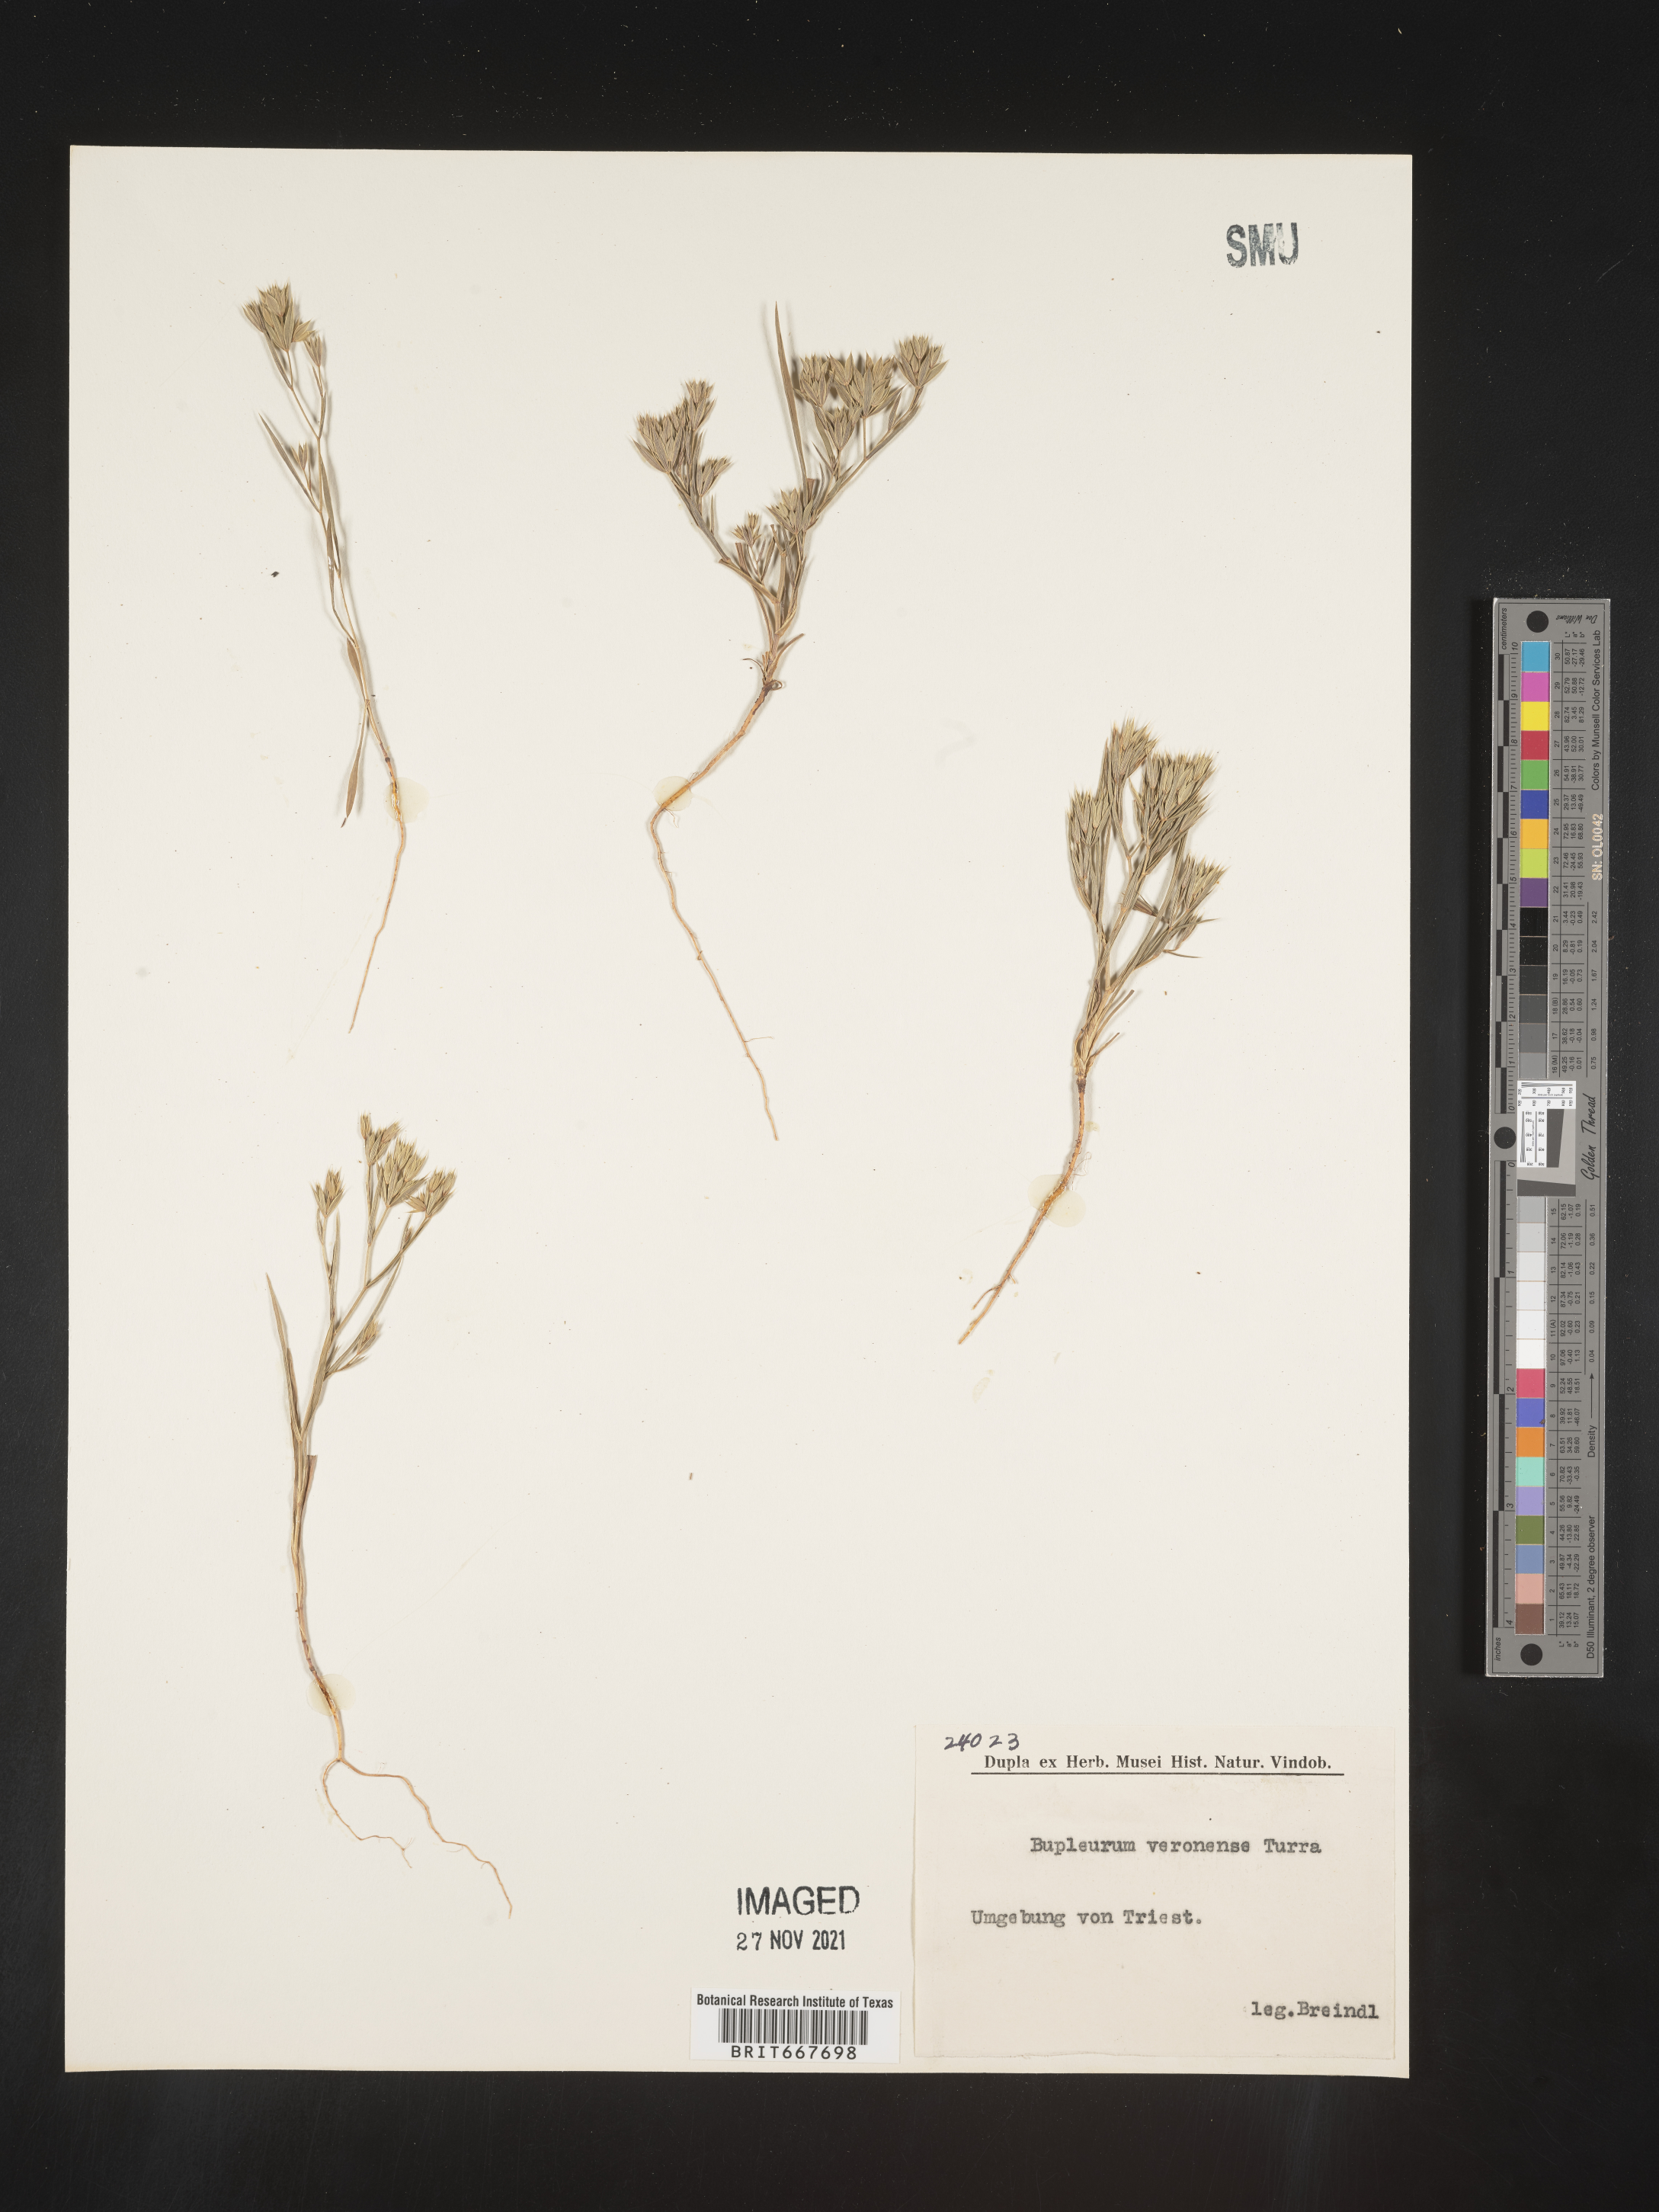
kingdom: Plantae
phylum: Tracheophyta
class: Magnoliopsida
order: Apiales
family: Apiaceae
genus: Bupleurum
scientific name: Bupleurum
